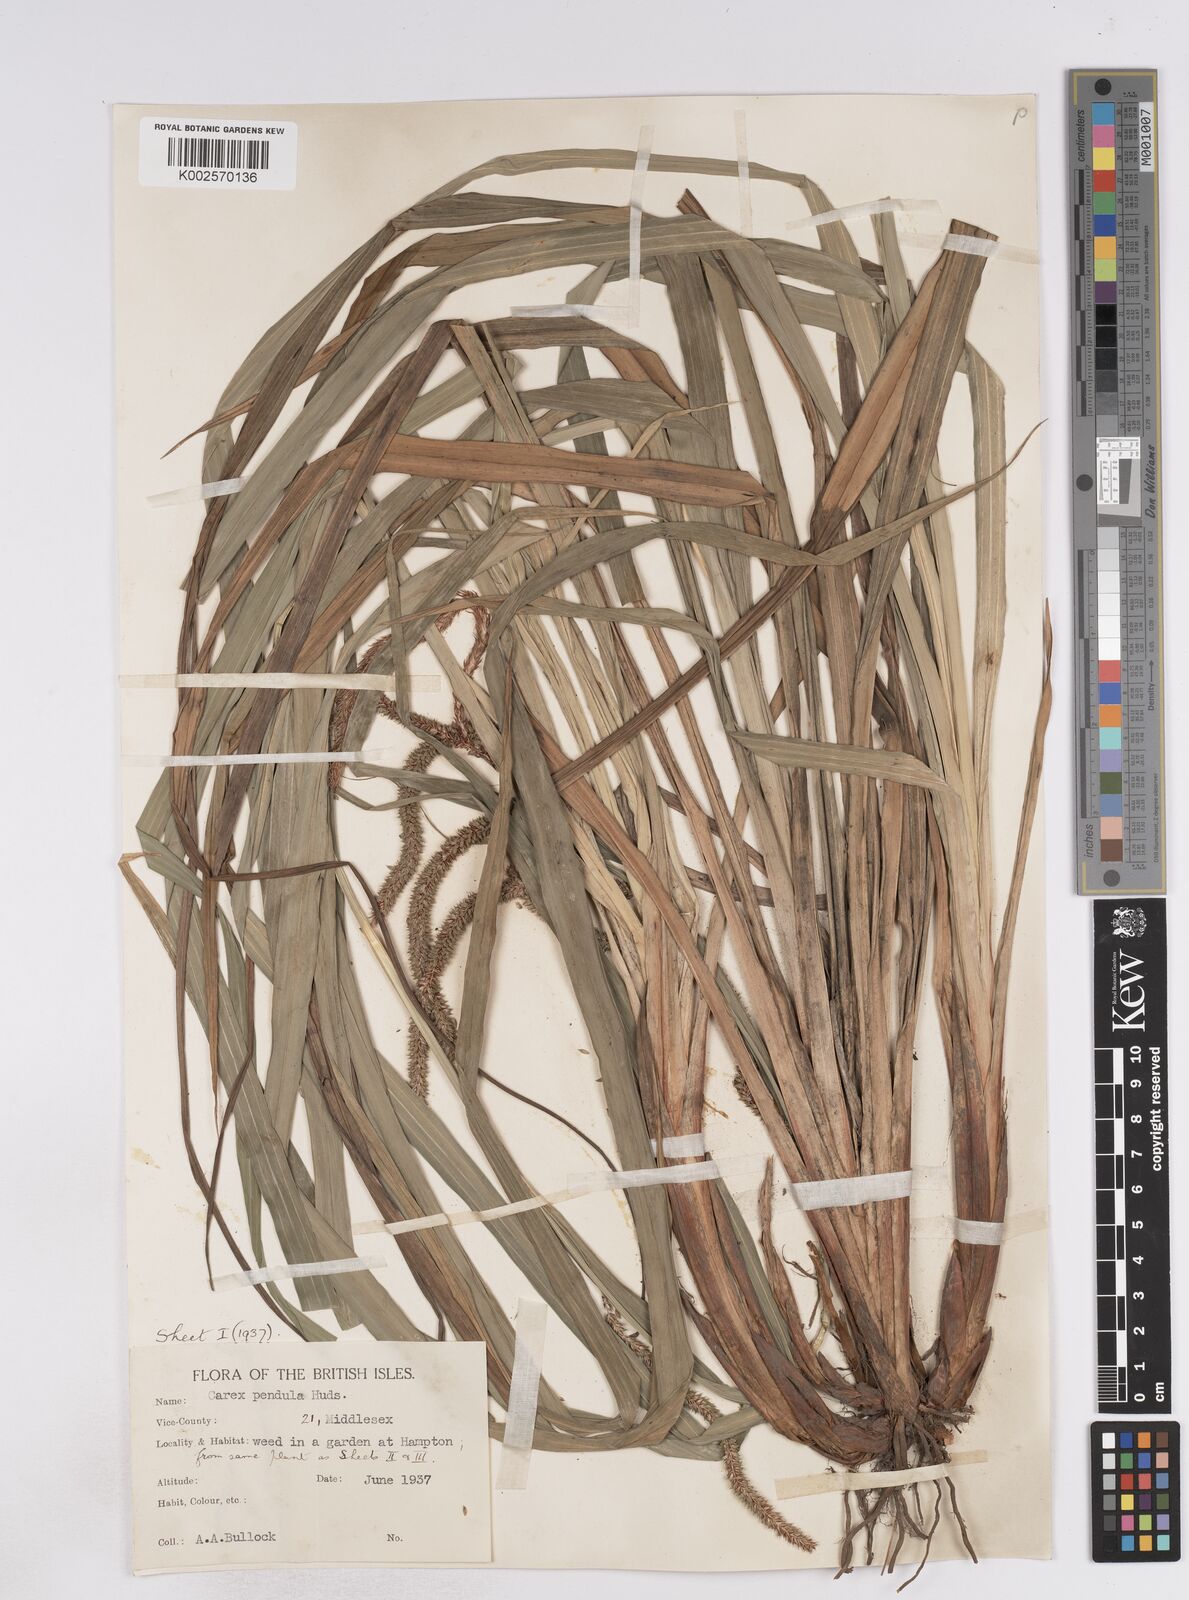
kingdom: Plantae
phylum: Tracheophyta
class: Liliopsida
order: Poales
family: Cyperaceae
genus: Carex
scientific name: Carex pendula
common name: Pendulous sedge
